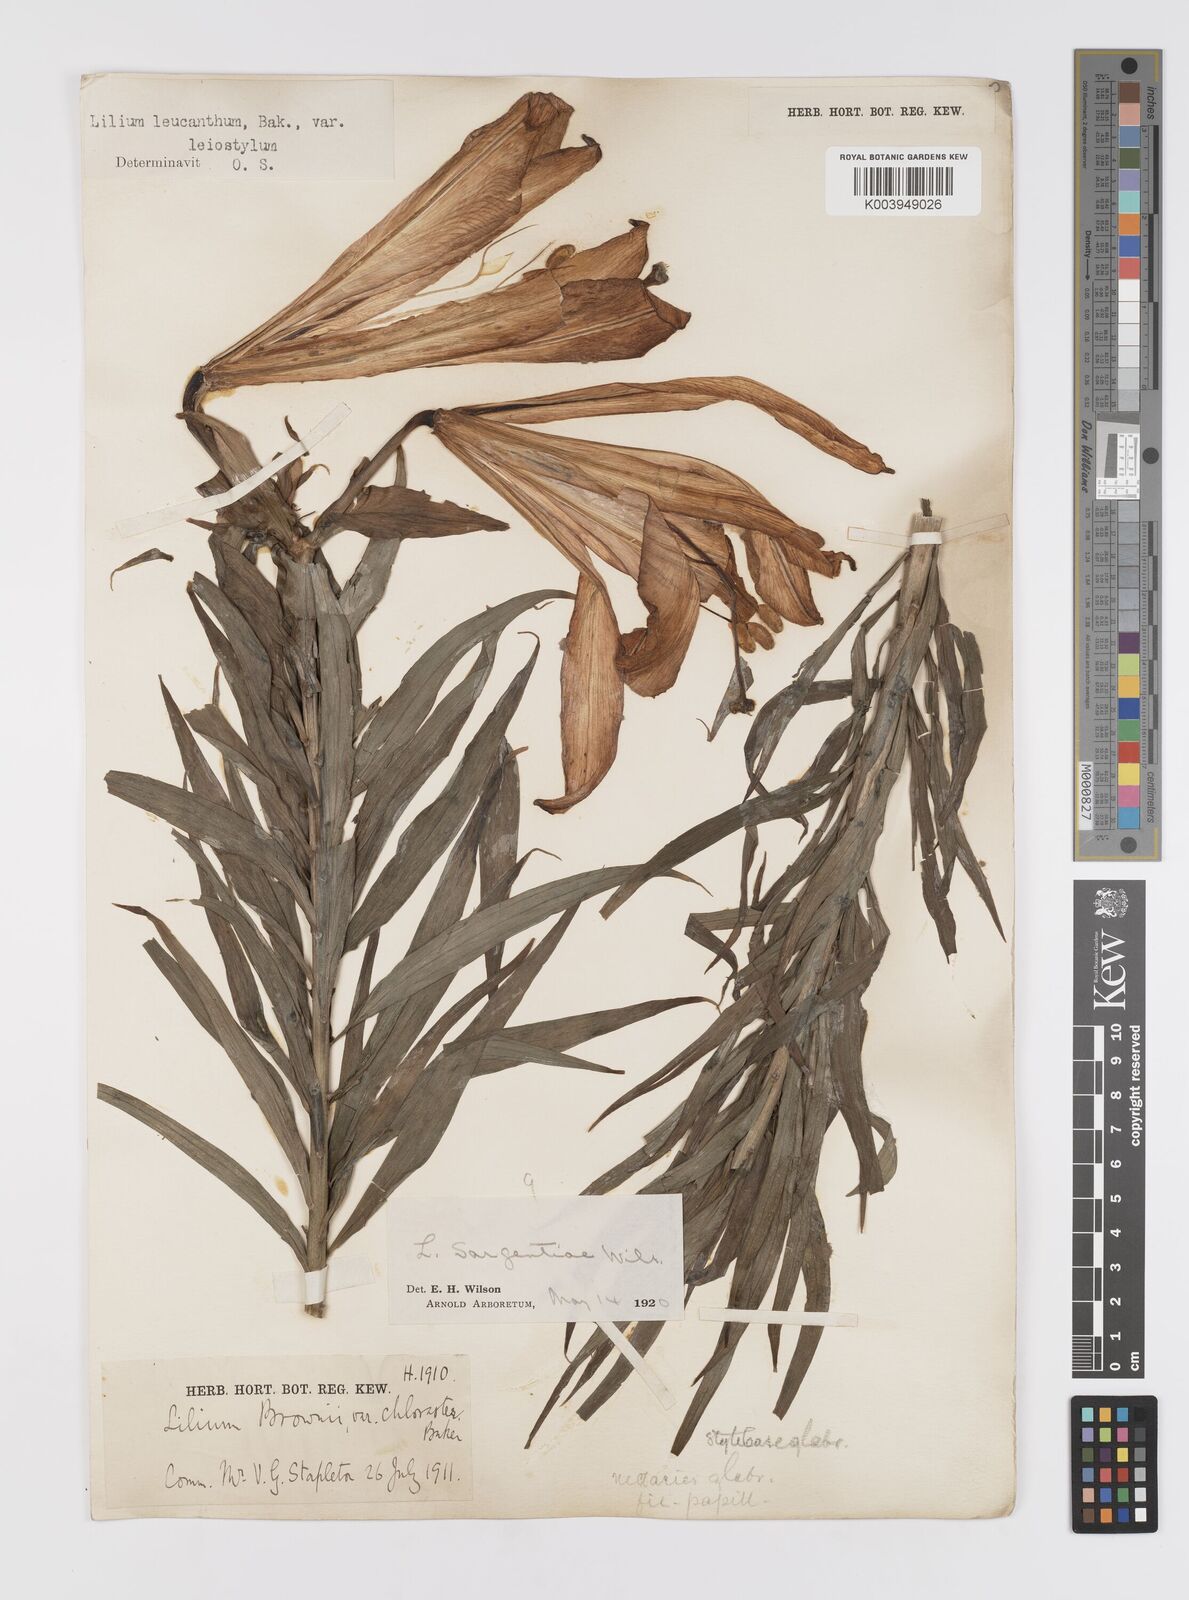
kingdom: Plantae
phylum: Tracheophyta
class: Liliopsida
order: Liliales
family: Liliaceae
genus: Lilium
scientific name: Lilium sargentiae
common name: Sargent lily
